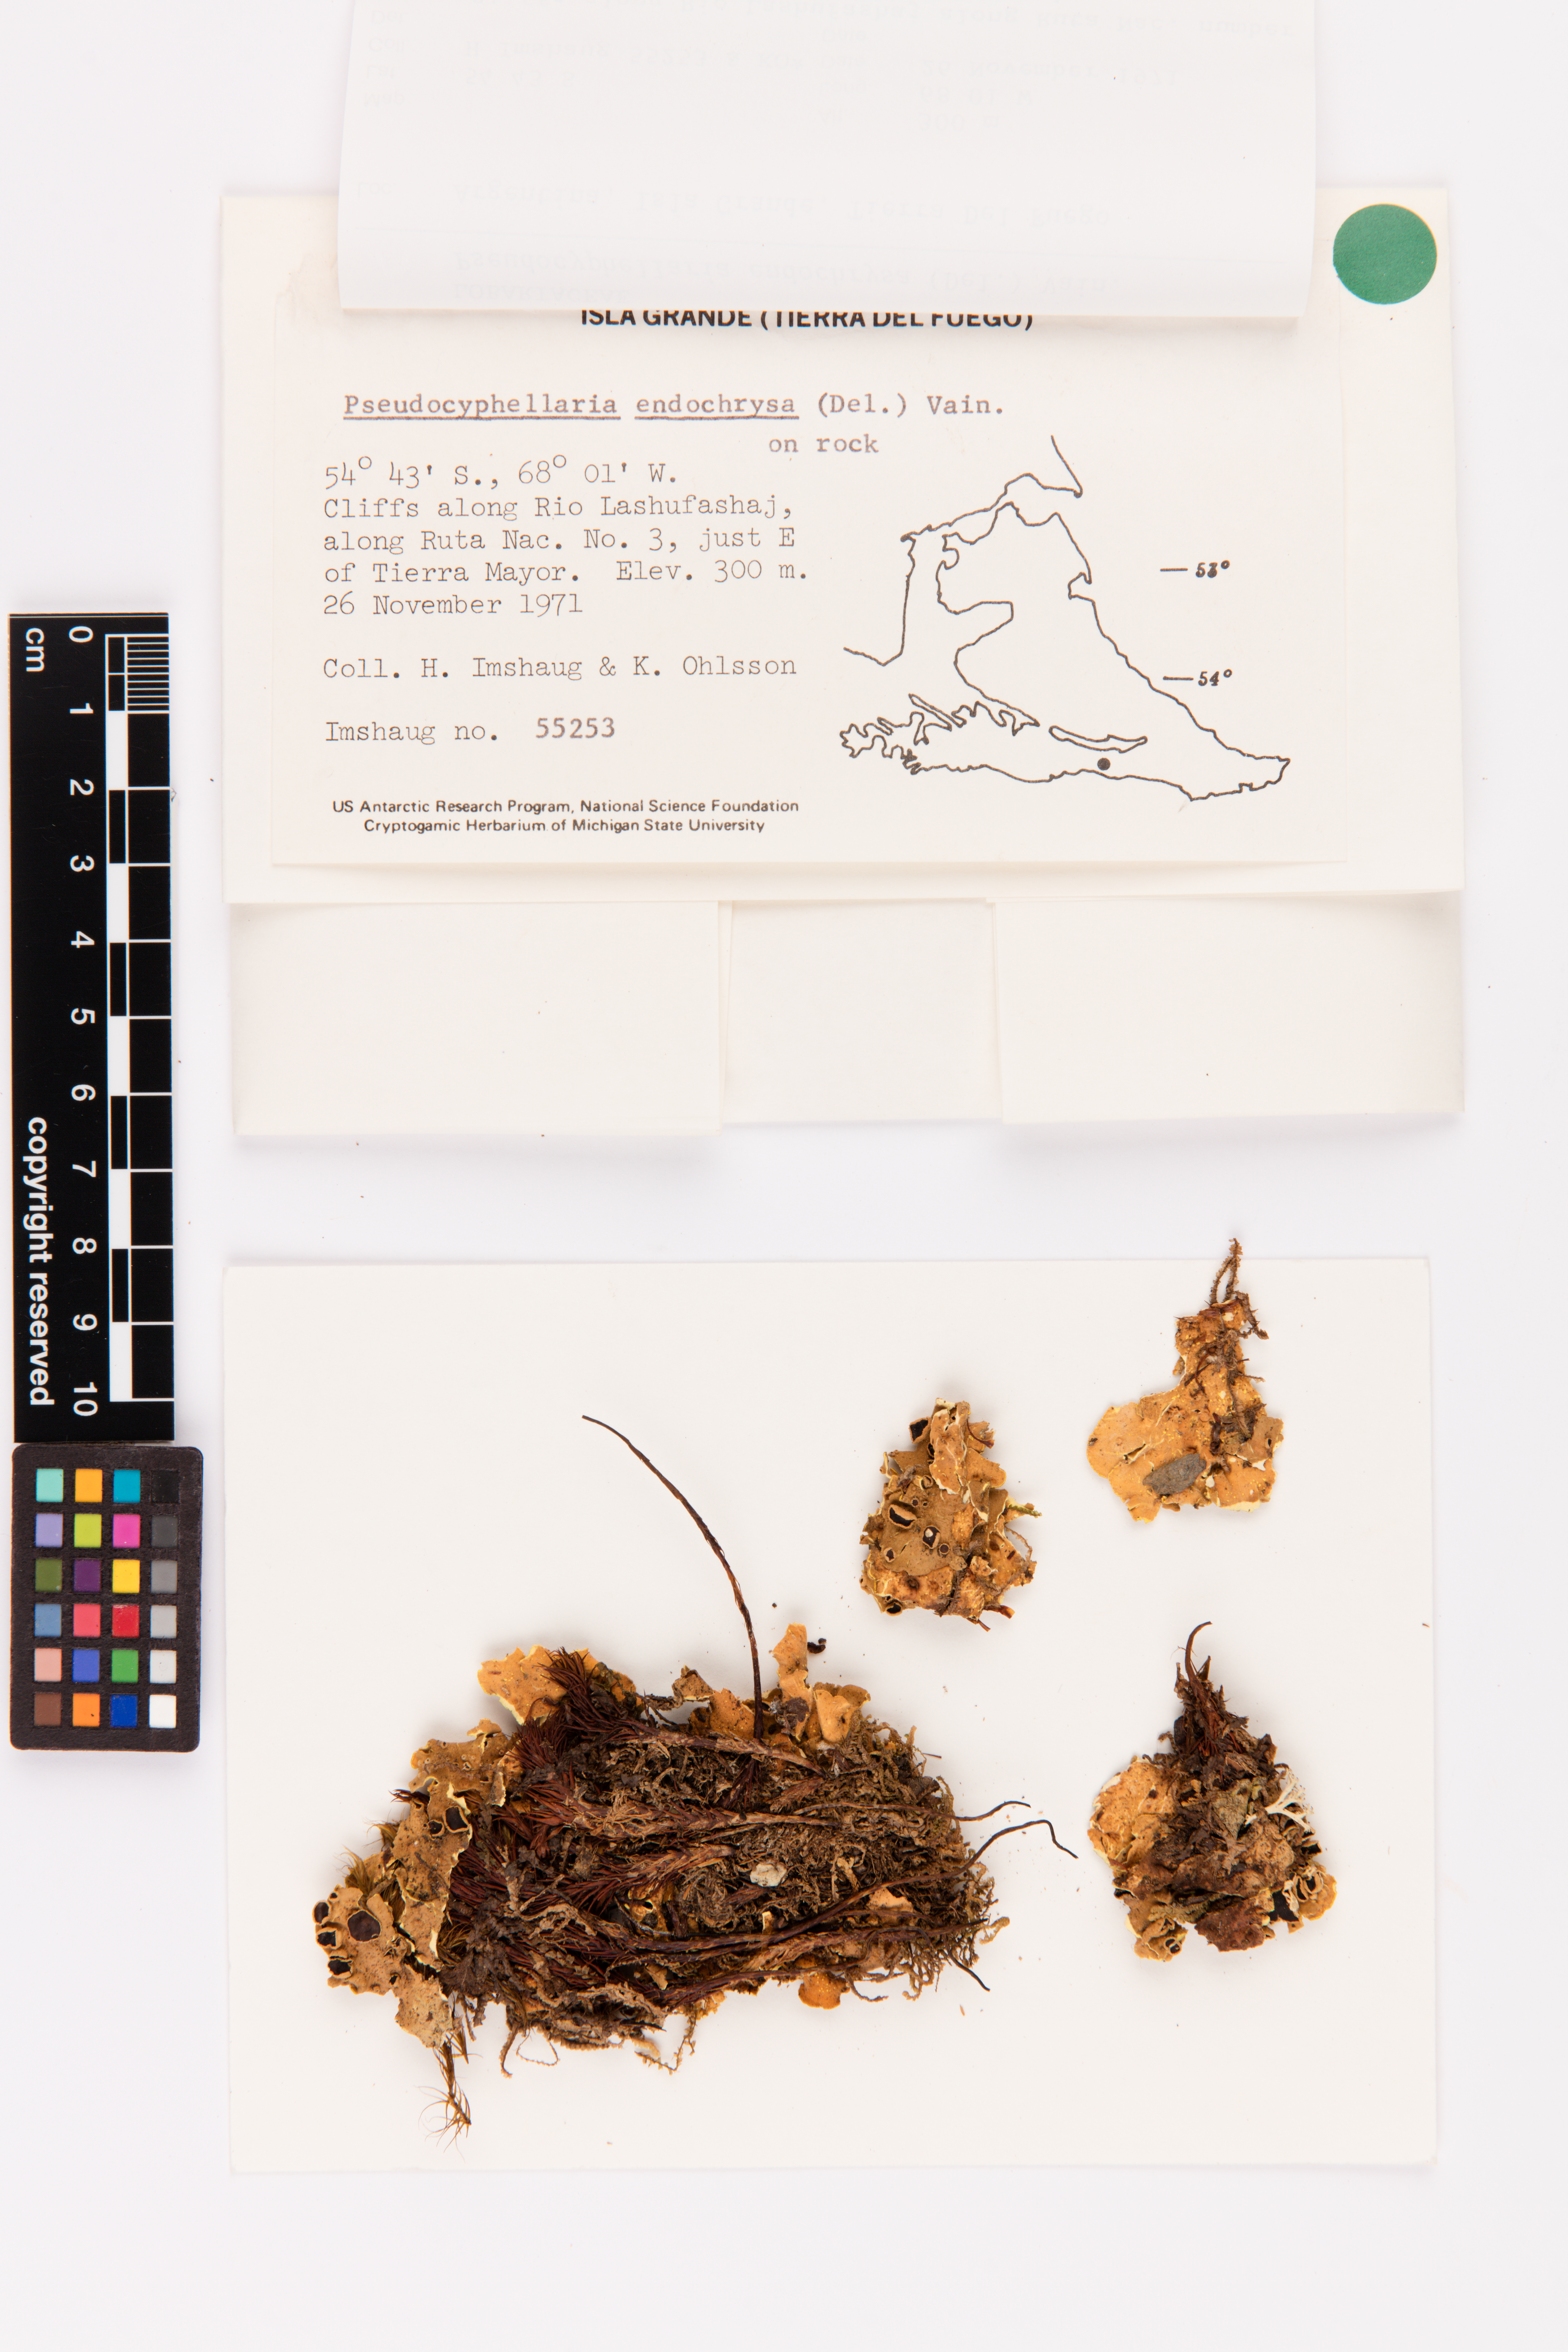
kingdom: Fungi
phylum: Ascomycota
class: Lecanoromycetes
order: Peltigerales
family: Lobariaceae
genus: Podostictina
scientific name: Podostictina endochrysa
